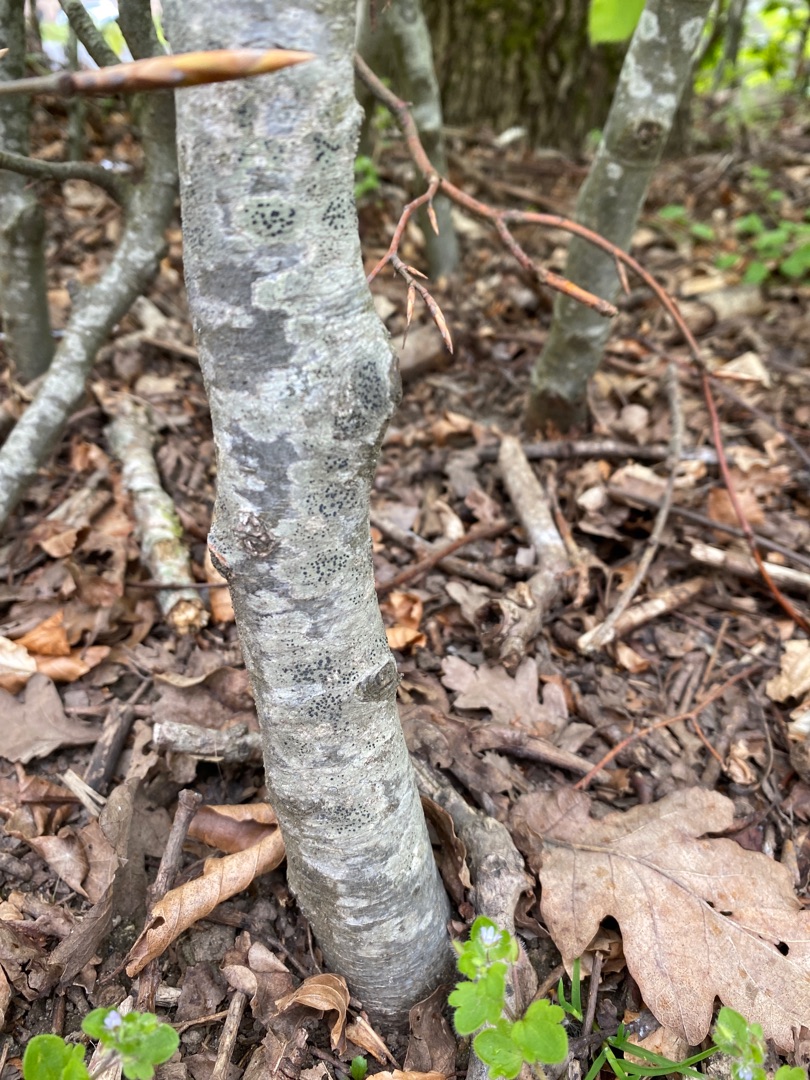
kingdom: Fungi
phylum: Ascomycota
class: Lecanoromycetes
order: Lecanorales
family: Lecanoraceae
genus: Lecidella
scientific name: Lecidella elaeochroma
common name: Grågrøn skivelav
